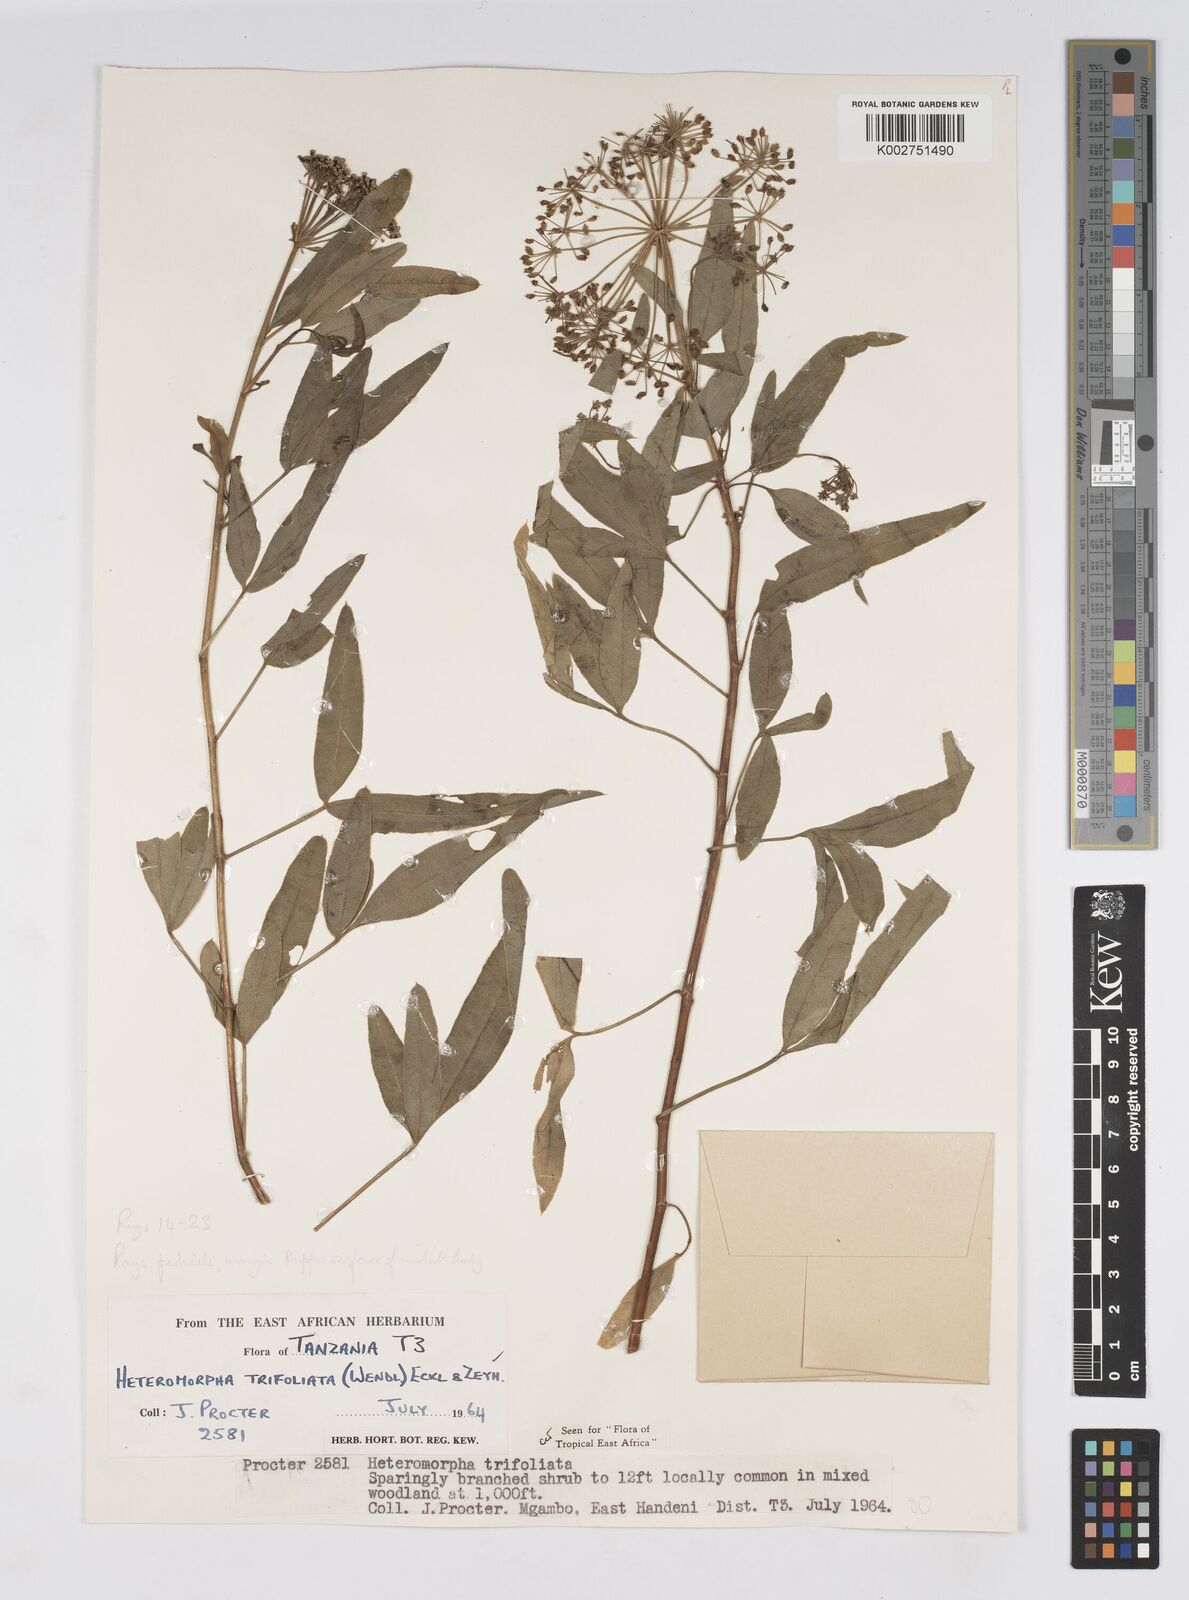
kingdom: Plantae
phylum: Tracheophyta
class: Magnoliopsida
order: Apiales
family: Apiaceae
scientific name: Apiaceae
